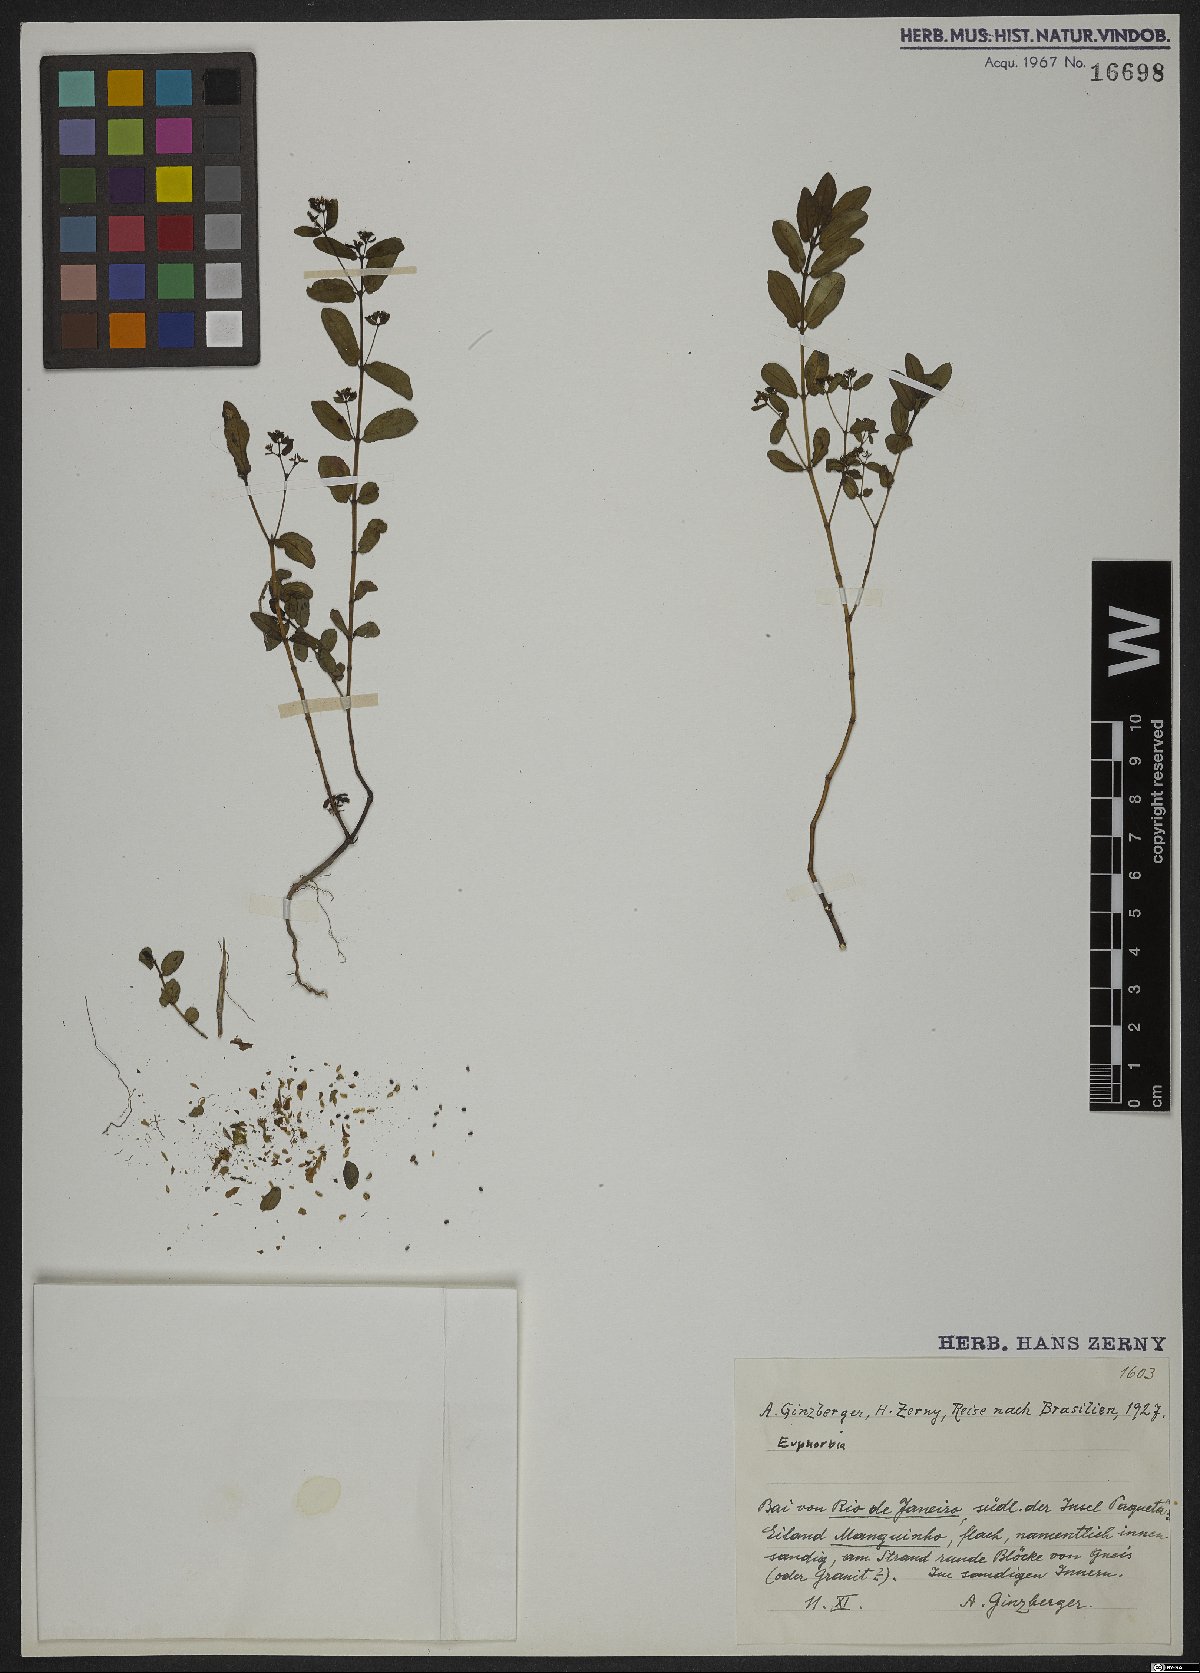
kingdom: Plantae
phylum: Tracheophyta
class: Magnoliopsida
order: Malpighiales
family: Euphorbiaceae
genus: Euphorbia
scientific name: Euphorbia
